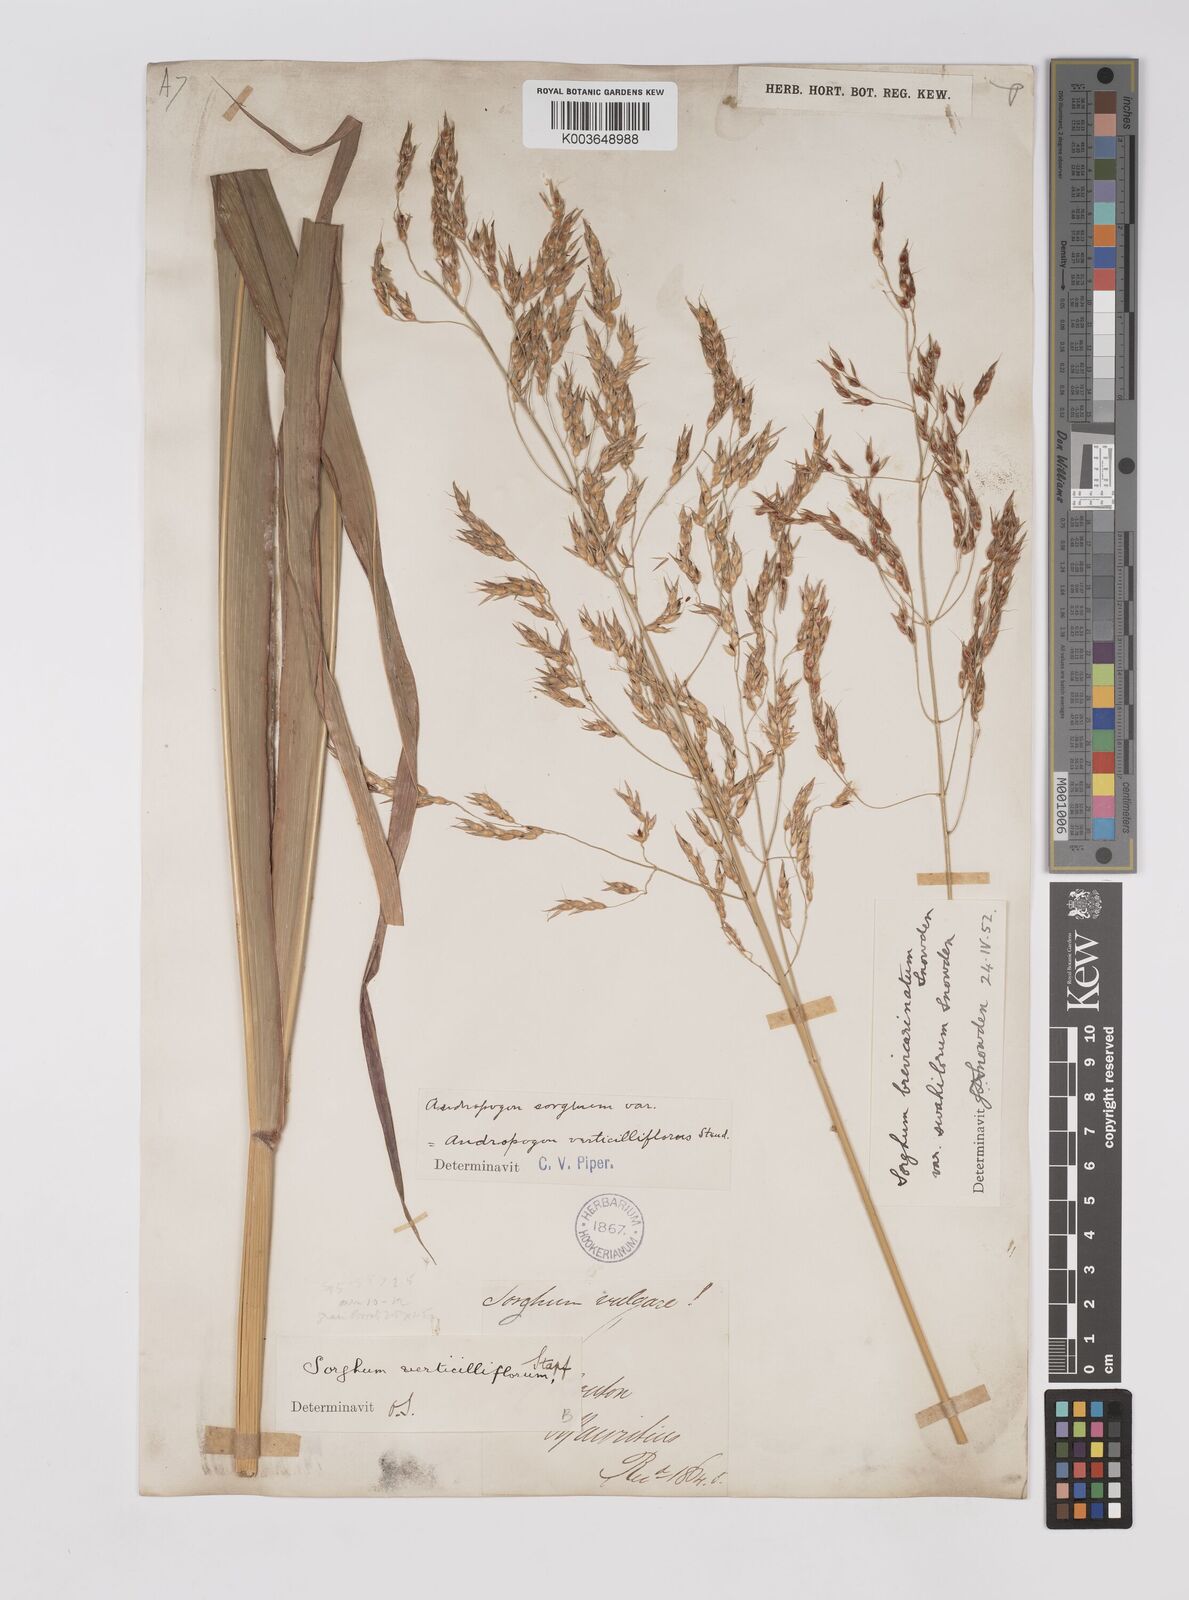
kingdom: Plantae
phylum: Tracheophyta
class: Liliopsida
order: Poales
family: Poaceae
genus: Sorghum
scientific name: Sorghum arundinaceum
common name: Sorghum
